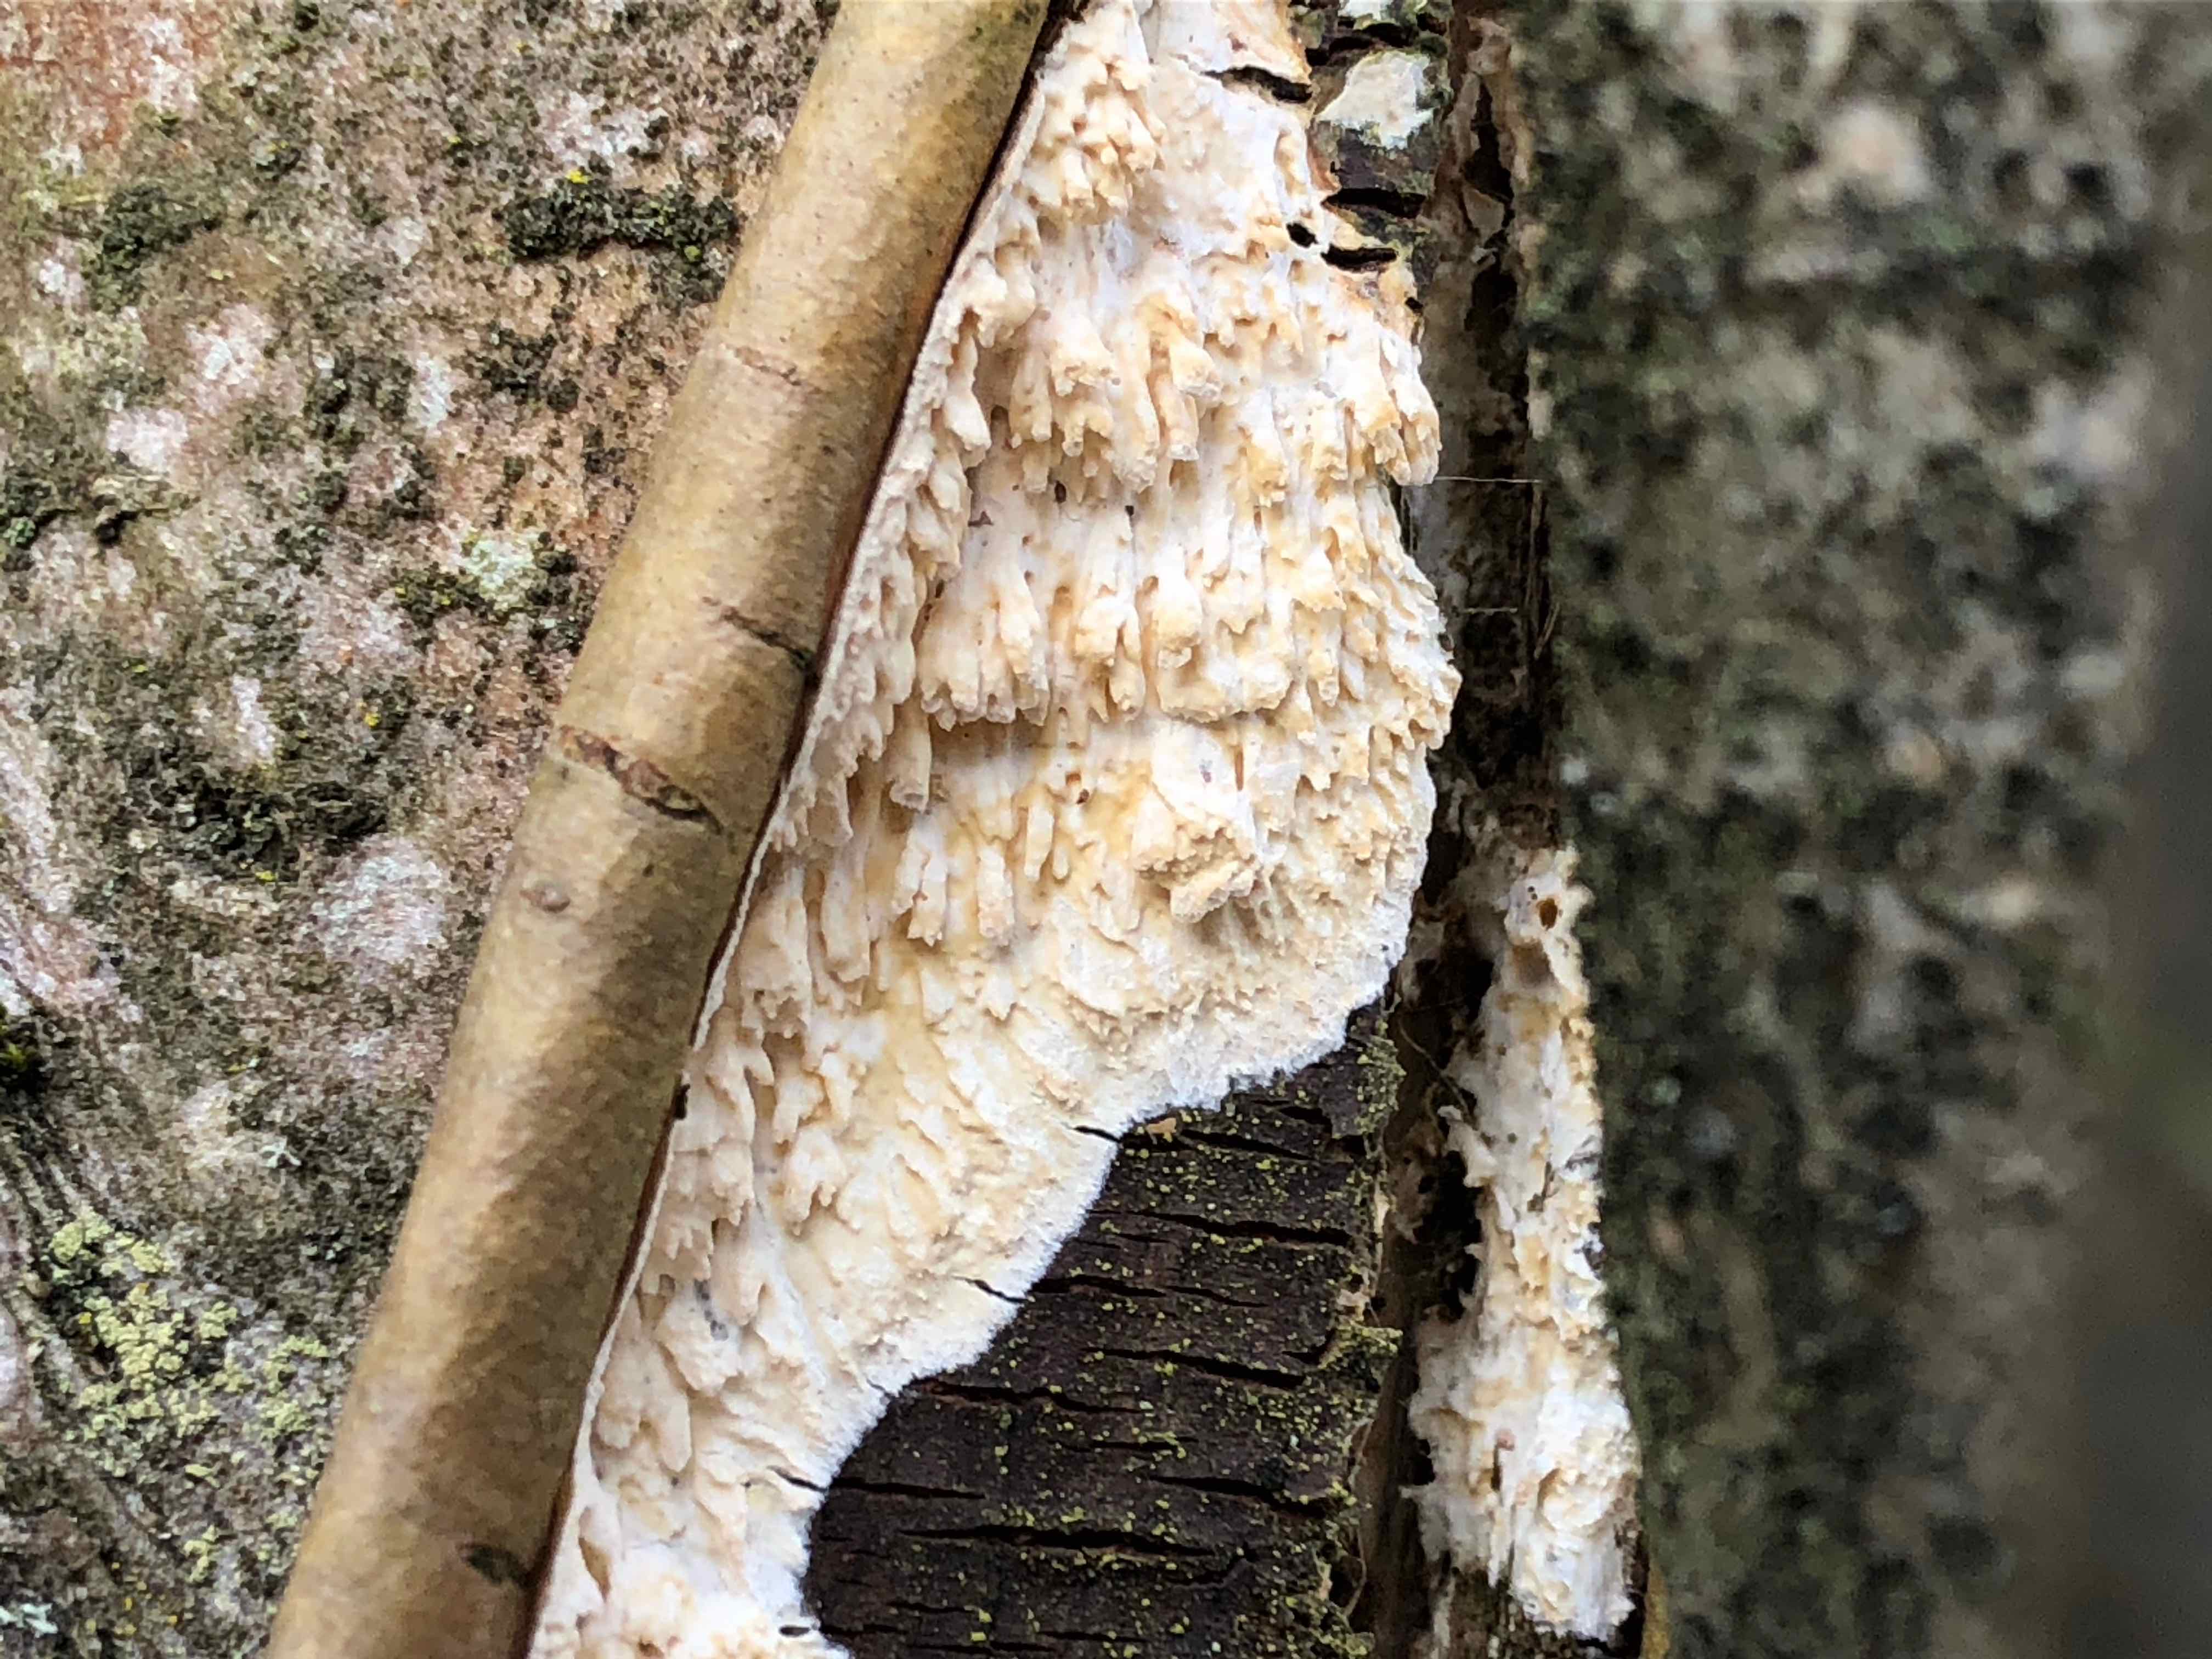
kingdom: Fungi
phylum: Basidiomycota
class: Agaricomycetes
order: Hymenochaetales
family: Schizoporaceae
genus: Xylodon
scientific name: Xylodon radula
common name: grovtandet kalkskind
